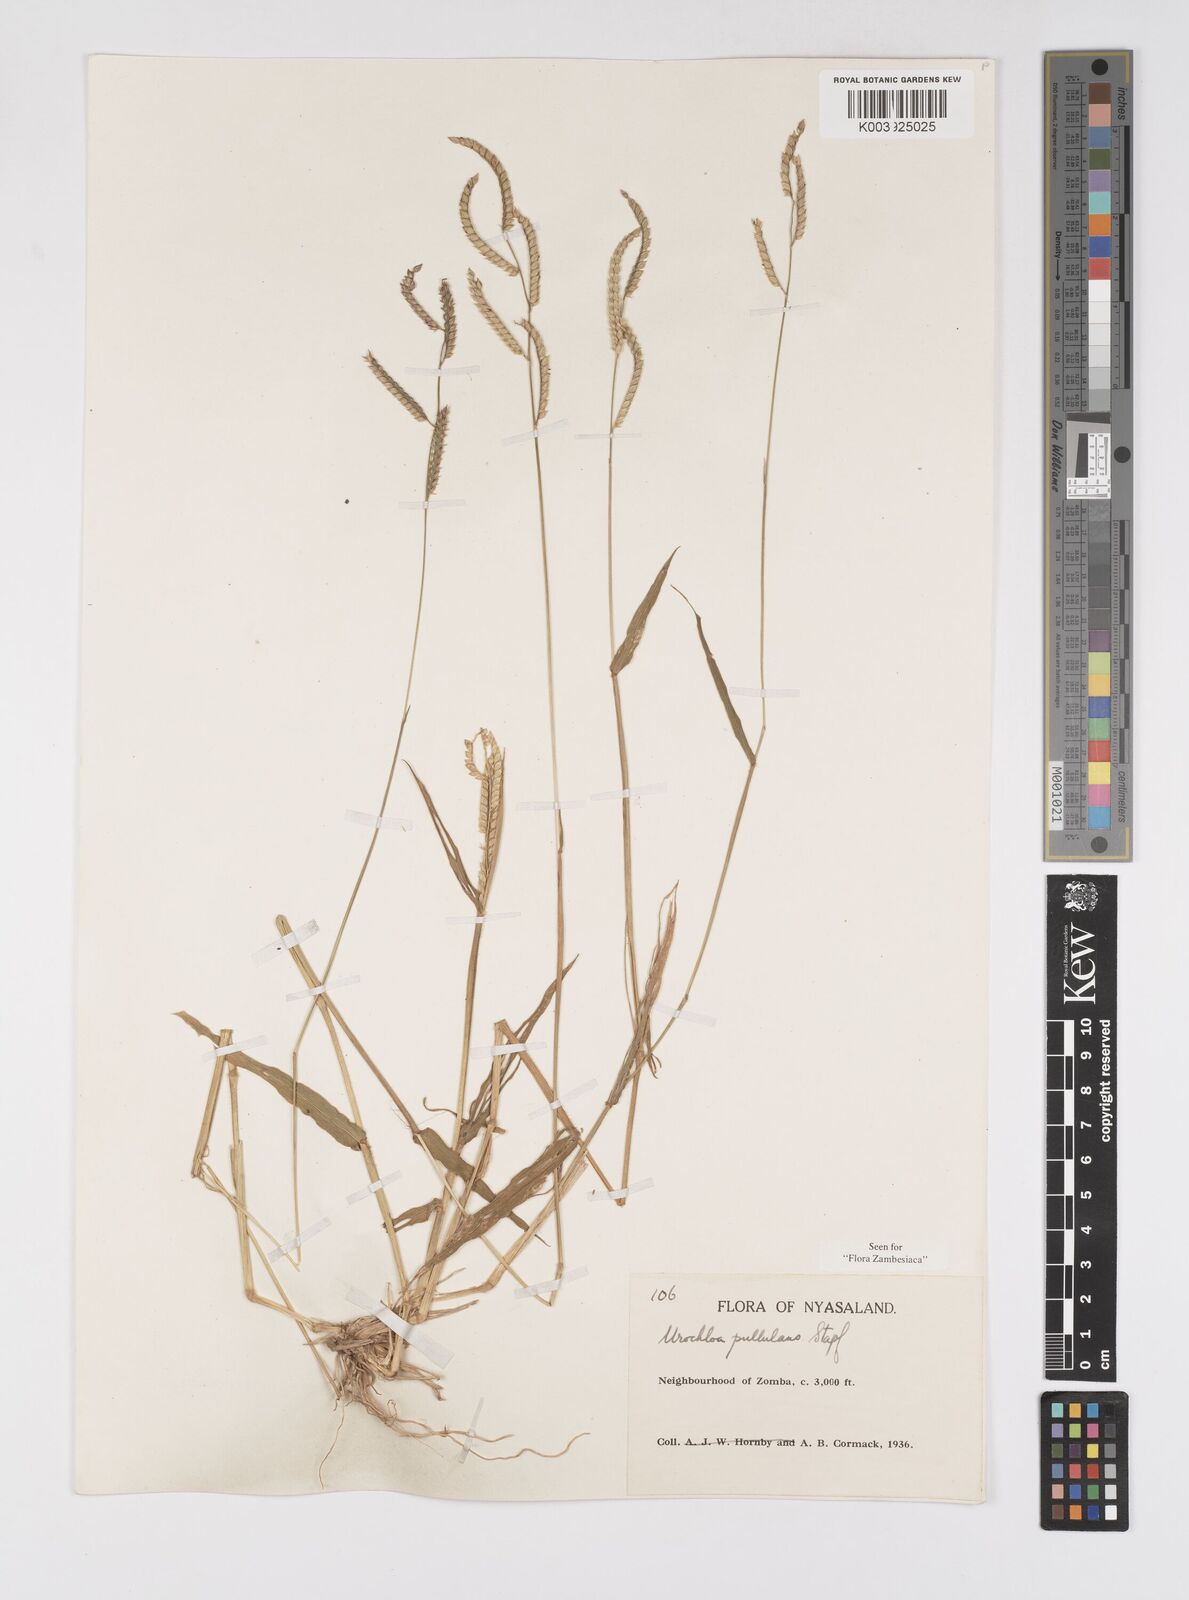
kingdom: Plantae
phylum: Tracheophyta
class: Liliopsida
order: Poales
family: Poaceae
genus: Urochloa
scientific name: Urochloa trichopus
